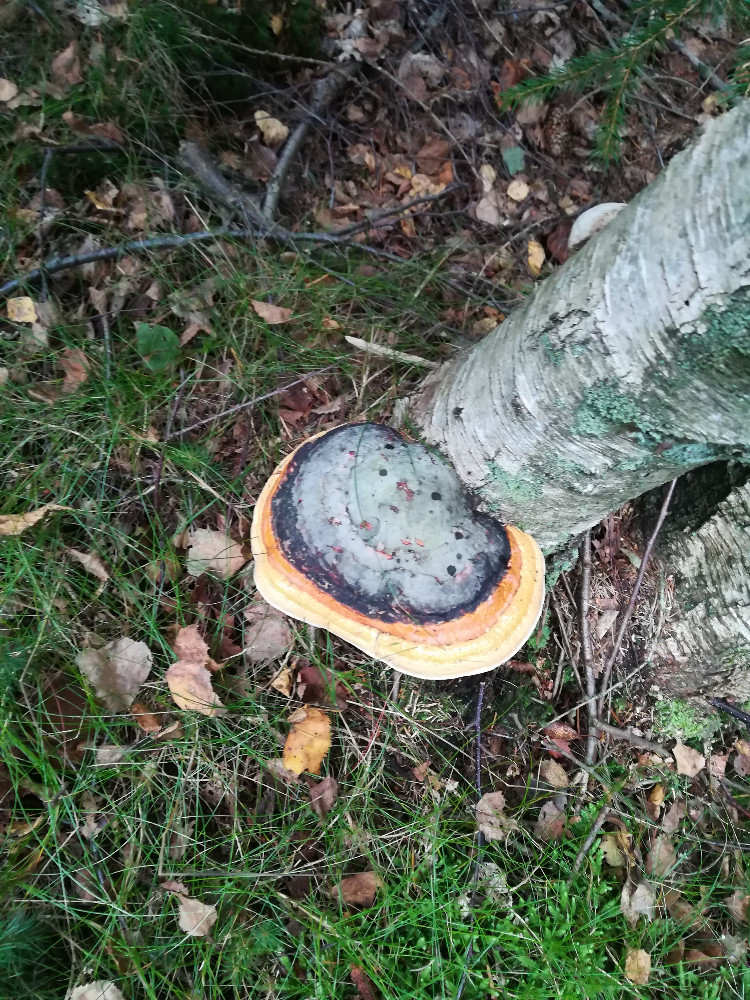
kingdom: Fungi
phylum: Basidiomycota
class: Agaricomycetes
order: Polyporales
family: Fomitopsidaceae
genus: Fomitopsis
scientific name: Fomitopsis pinicola
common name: randbæltet hovporesvamp
